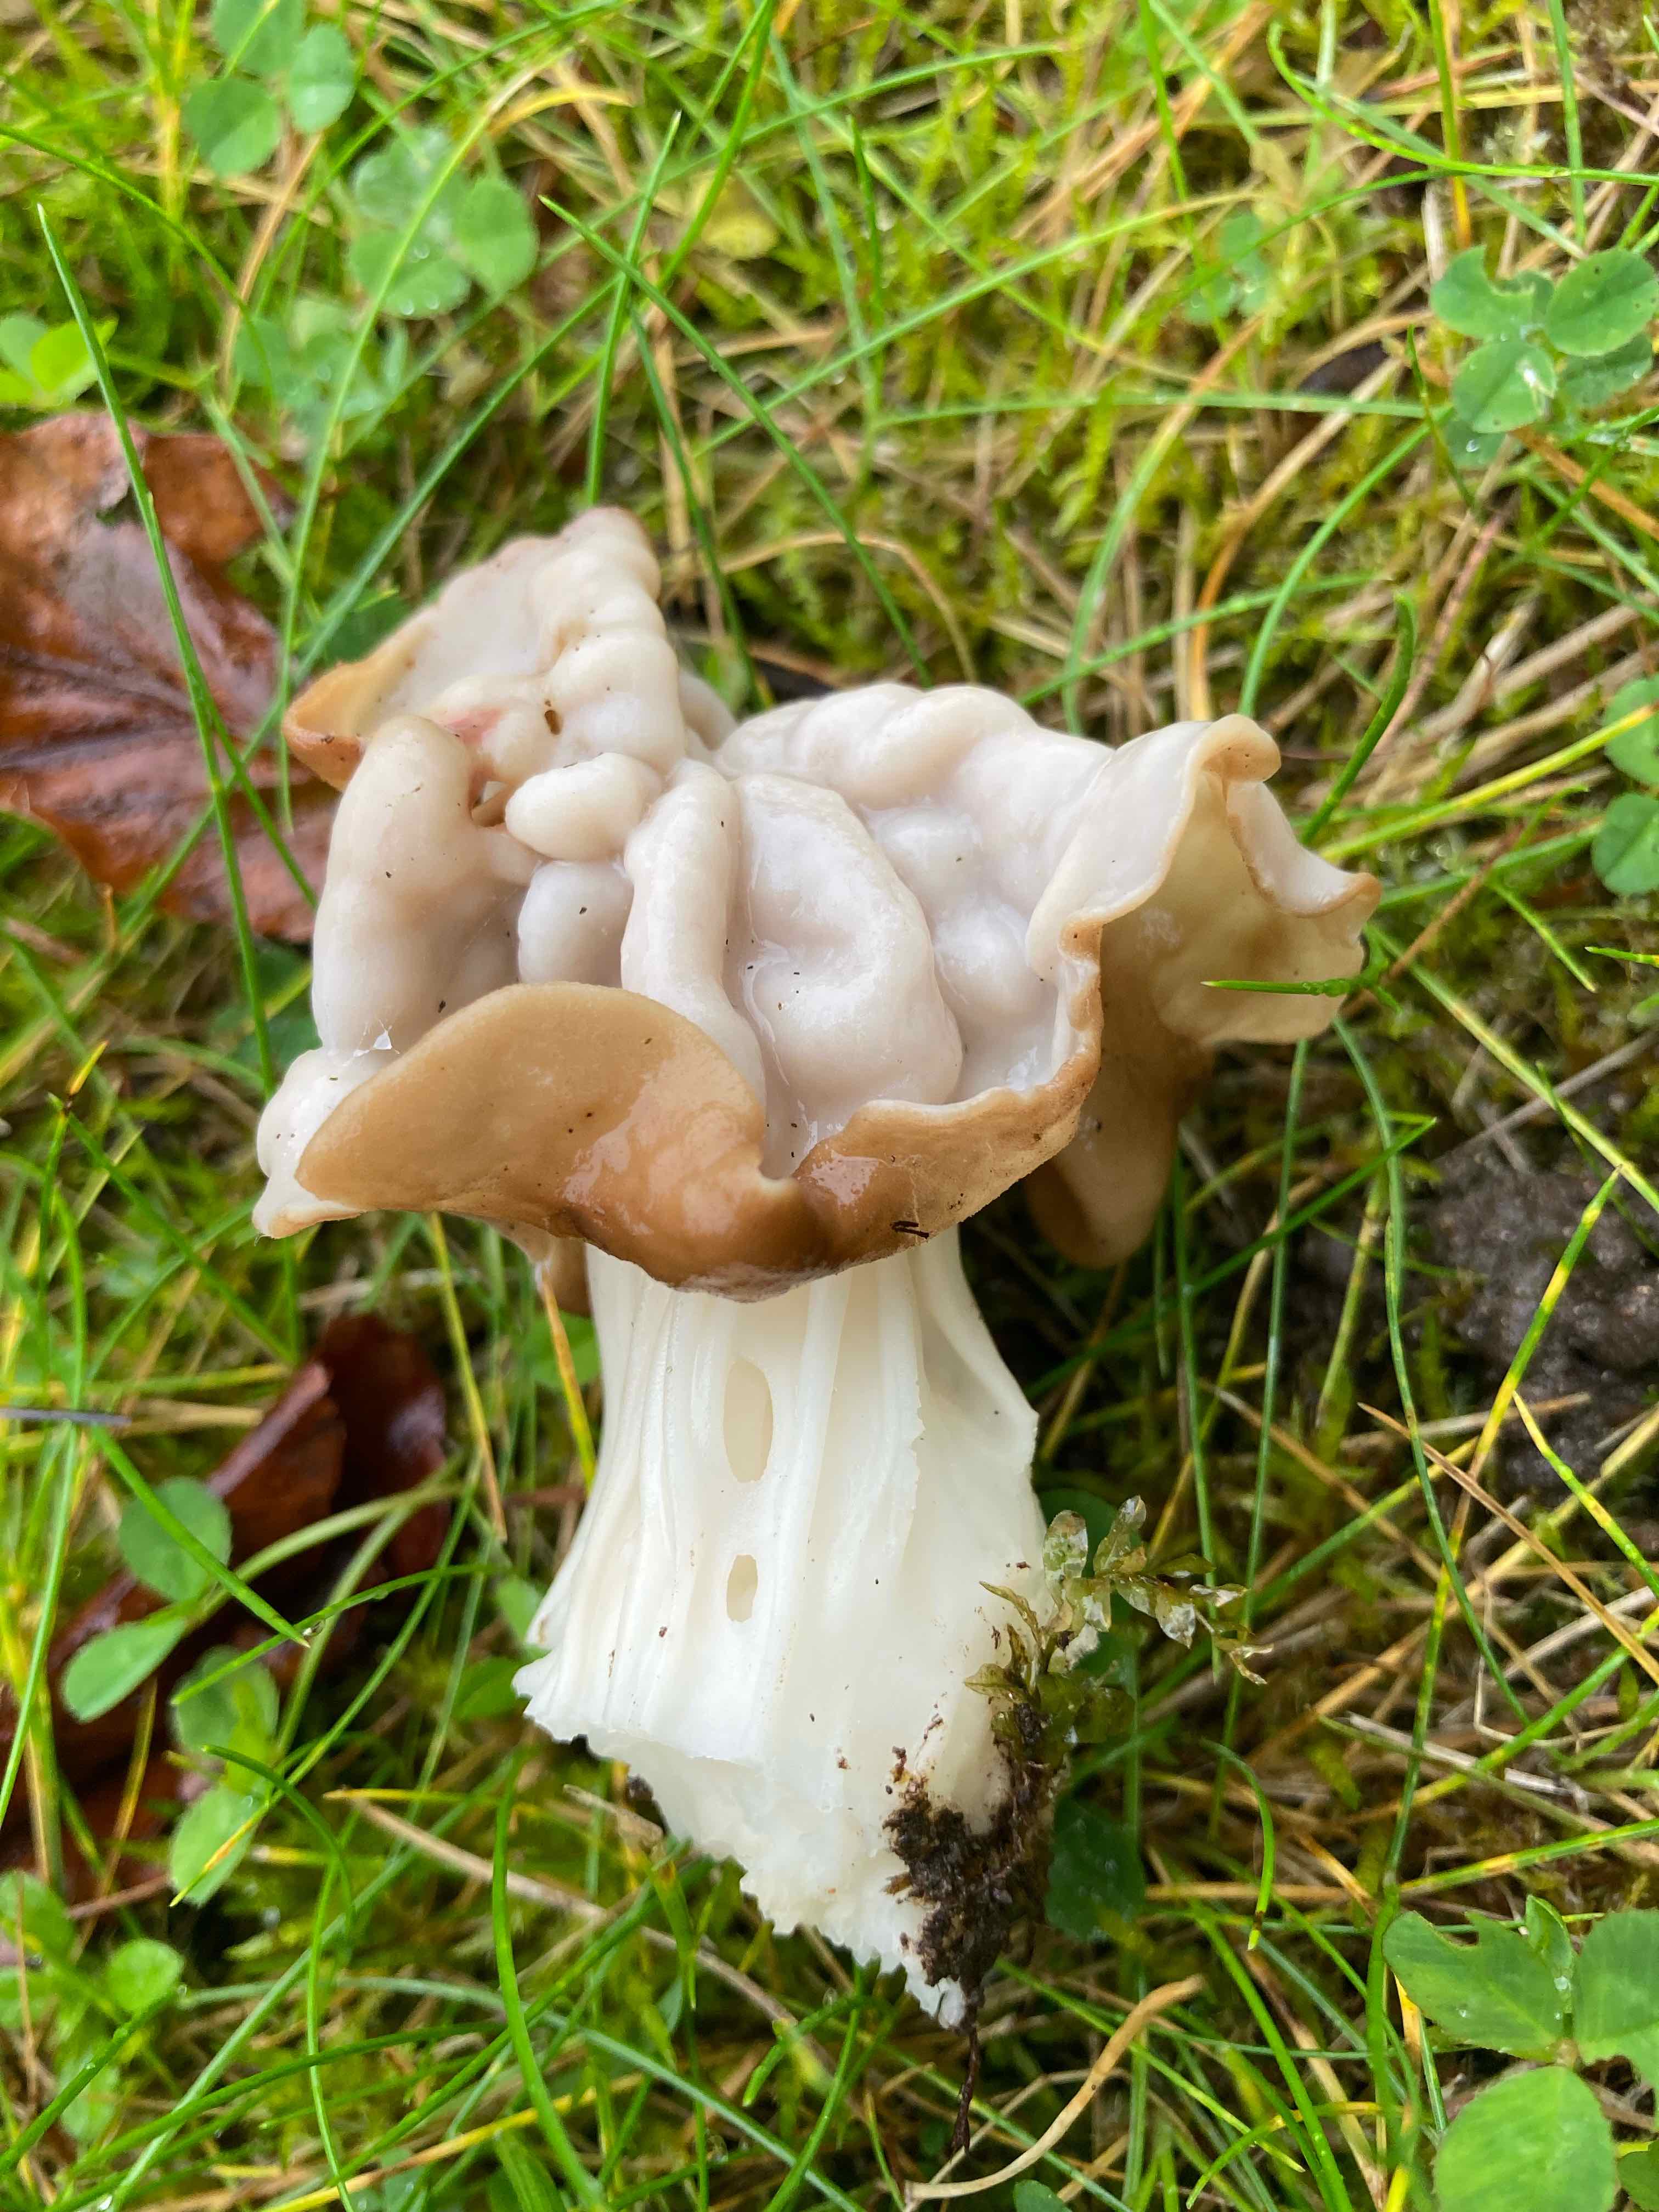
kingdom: Fungi
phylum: Ascomycota
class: Pezizomycetes
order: Pezizales
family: Helvellaceae
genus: Helvella
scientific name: Helvella crispa
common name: kruset foldhat
